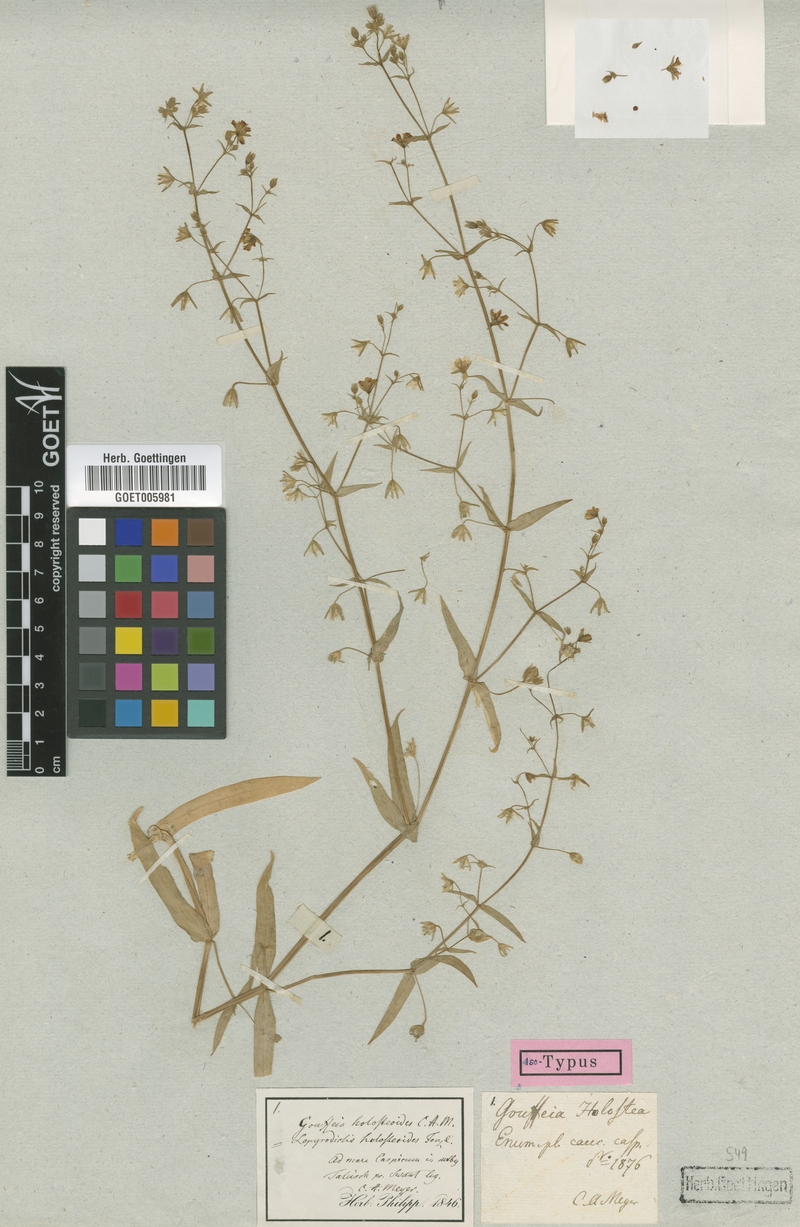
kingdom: Plantae
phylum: Tracheophyta
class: Magnoliopsida
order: Caryophyllales
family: Caryophyllaceae
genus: Lepyrodiclis
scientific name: Lepyrodiclis holosteoides
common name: False jagged-ckickweed
